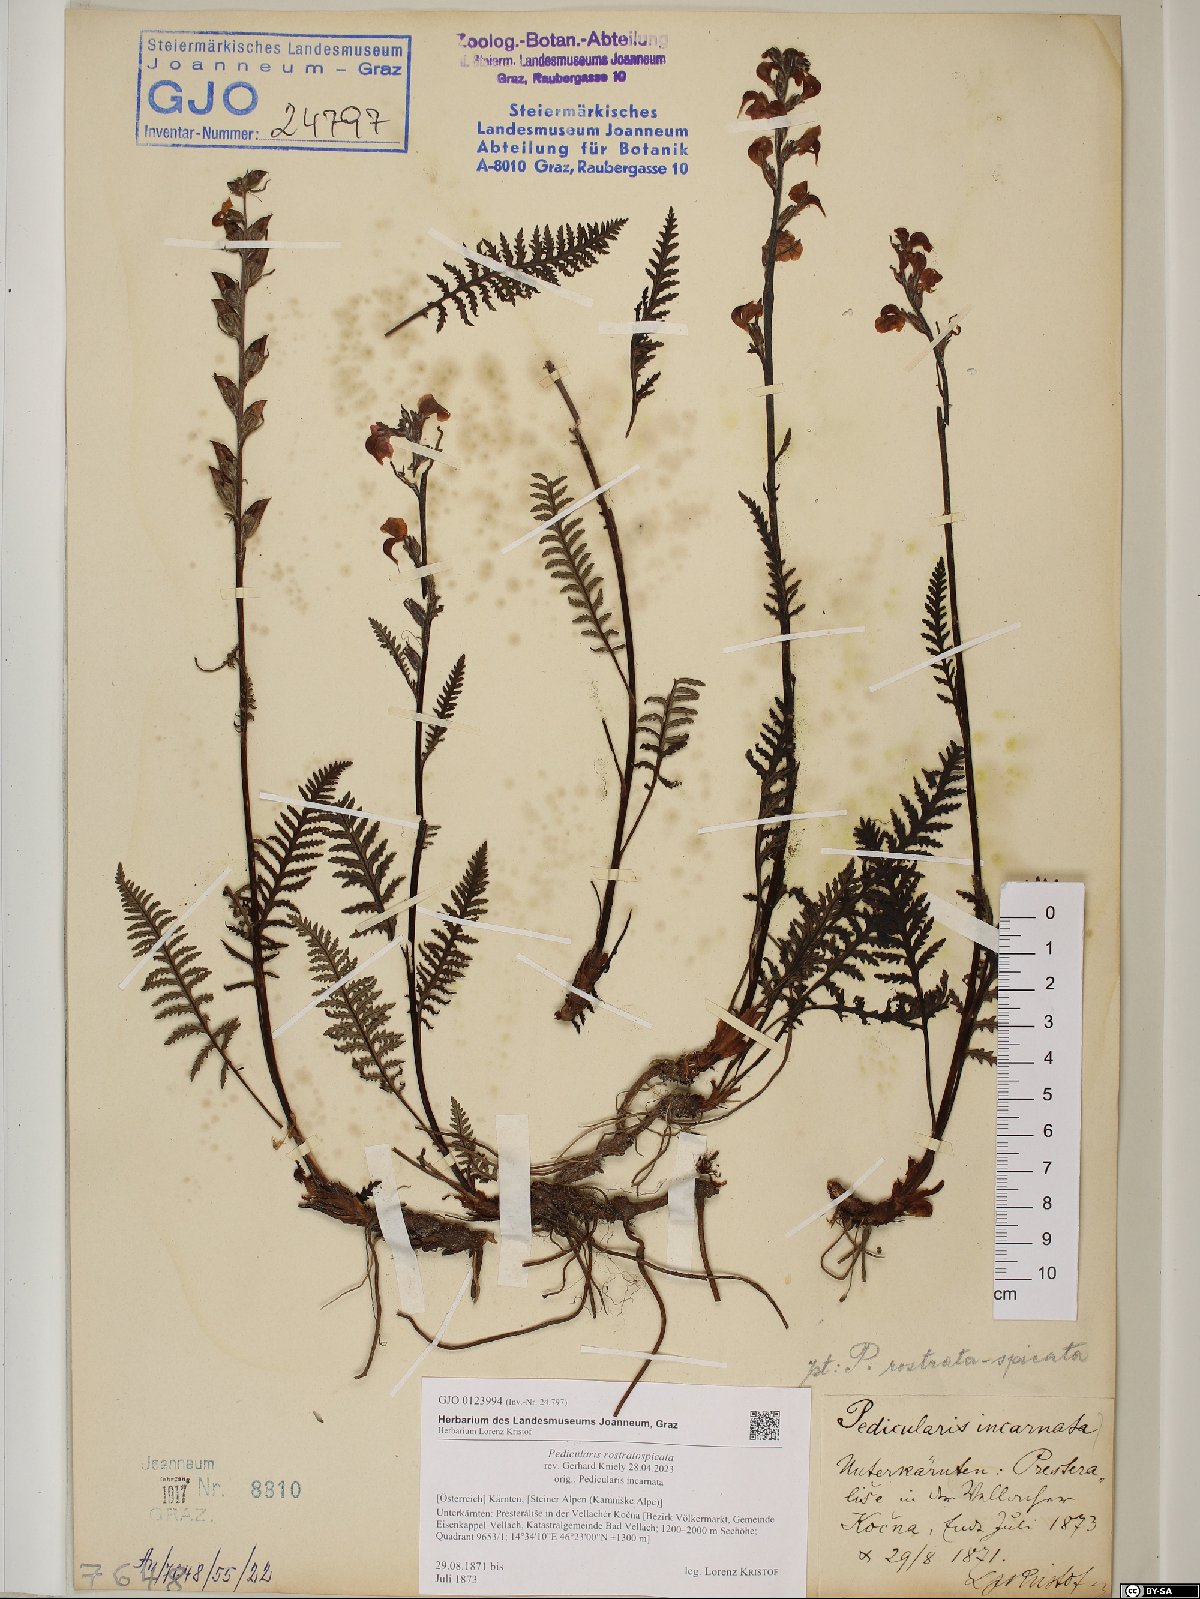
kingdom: Plantae
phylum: Tracheophyta
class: Magnoliopsida
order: Lamiales
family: Orobanchaceae
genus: Pedicularis
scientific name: Pedicularis rostratospicata
